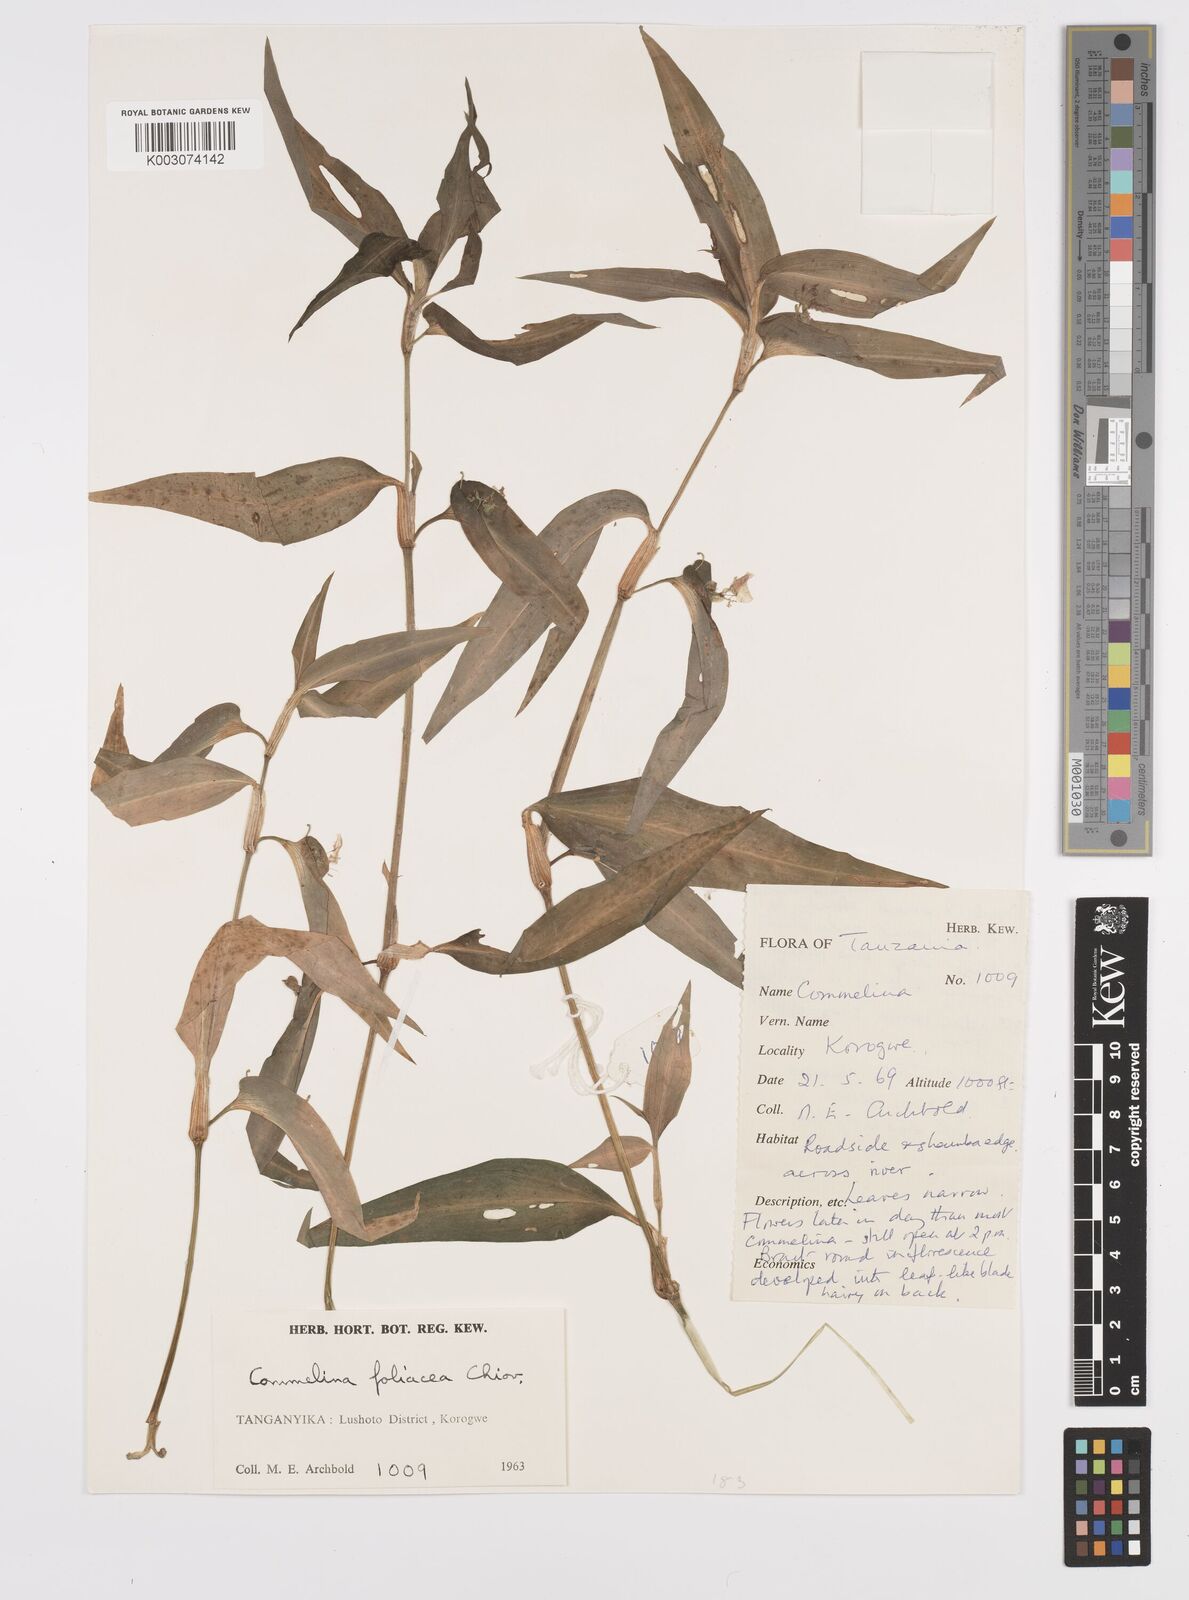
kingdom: Plantae
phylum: Tracheophyta
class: Liliopsida
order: Commelinales
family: Commelinaceae
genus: Commelina
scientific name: Commelina foliacea
